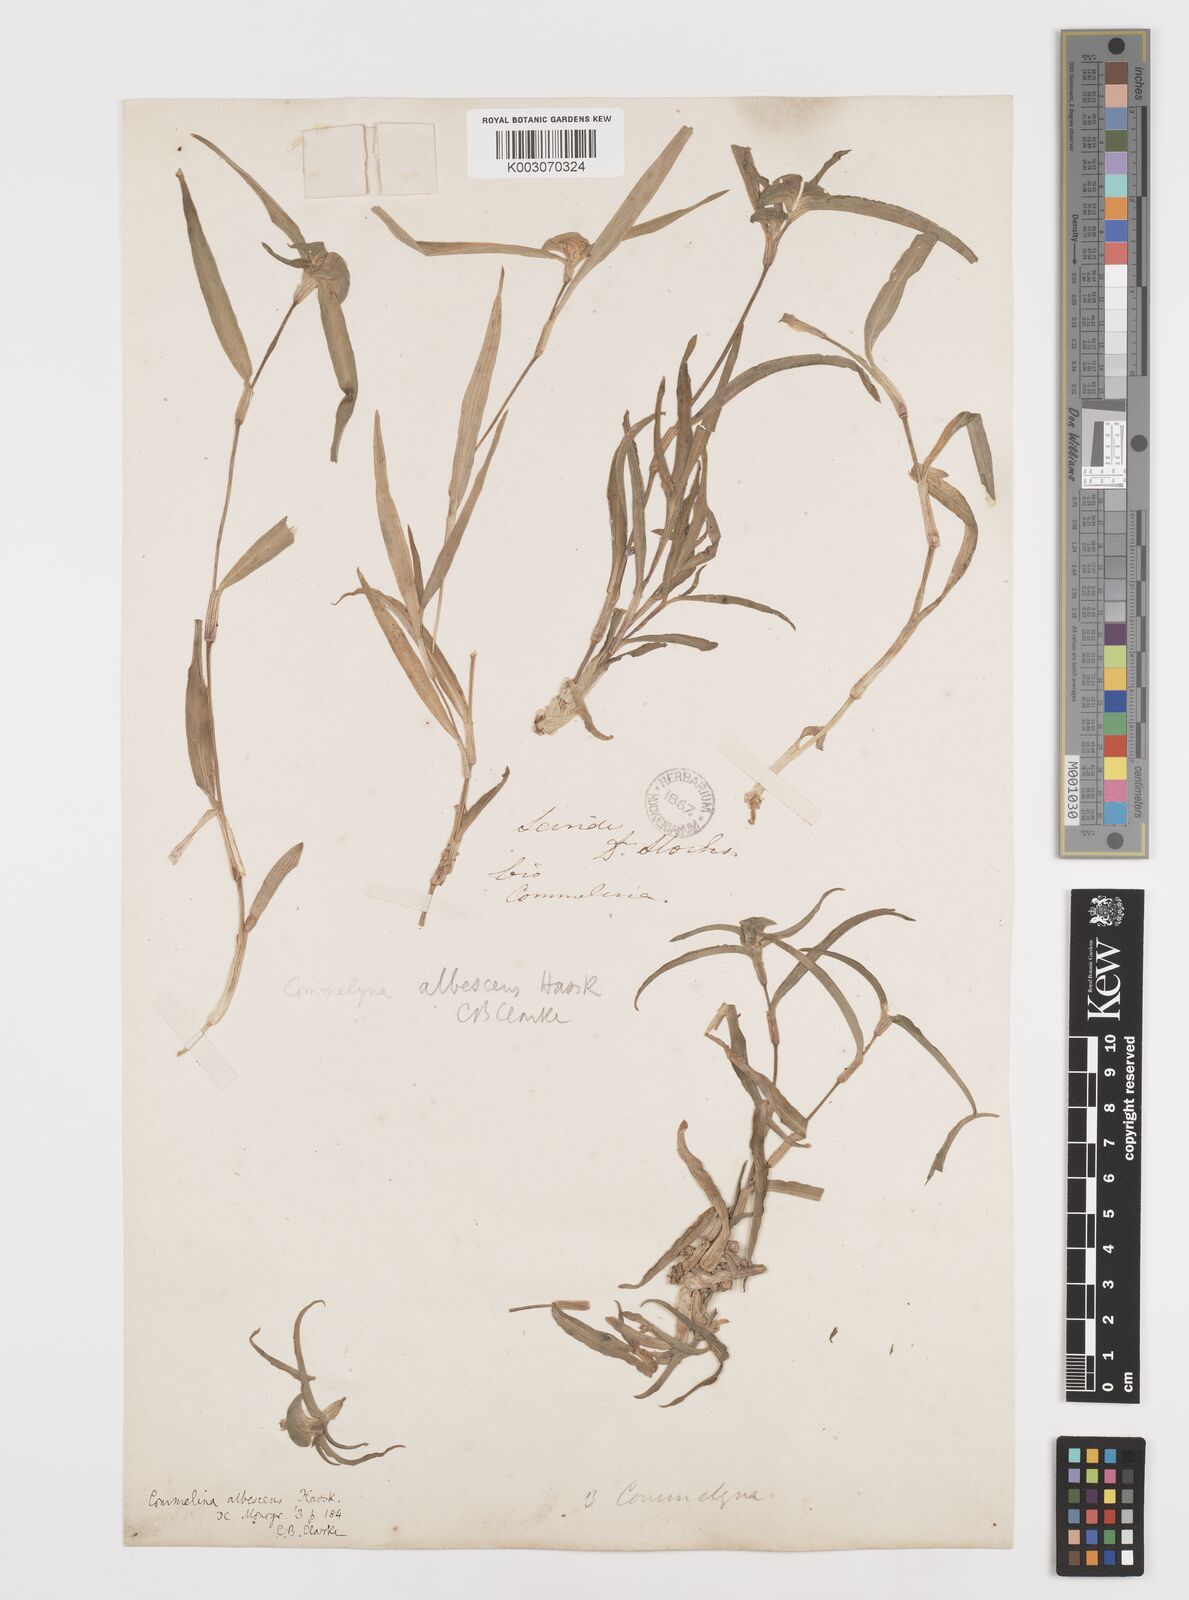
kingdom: Plantae
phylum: Tracheophyta
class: Liliopsida
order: Commelinales
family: Commelinaceae
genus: Commelina
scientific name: Commelina albescens
